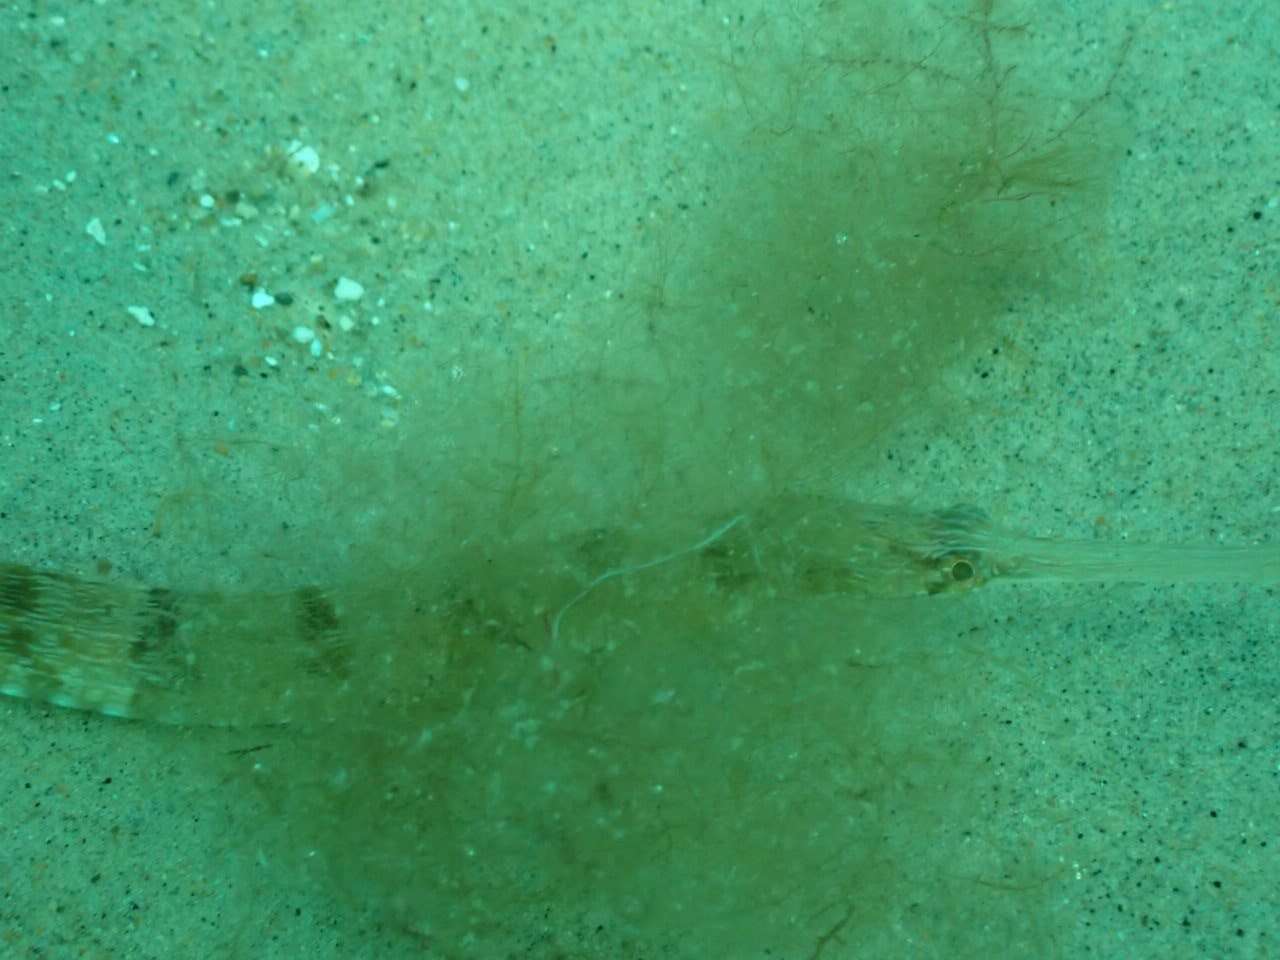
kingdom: Animalia
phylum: Chordata
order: Syngnathiformes
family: Syngnathidae
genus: Syngnathus
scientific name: Syngnathus acus
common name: Stor tangnål
